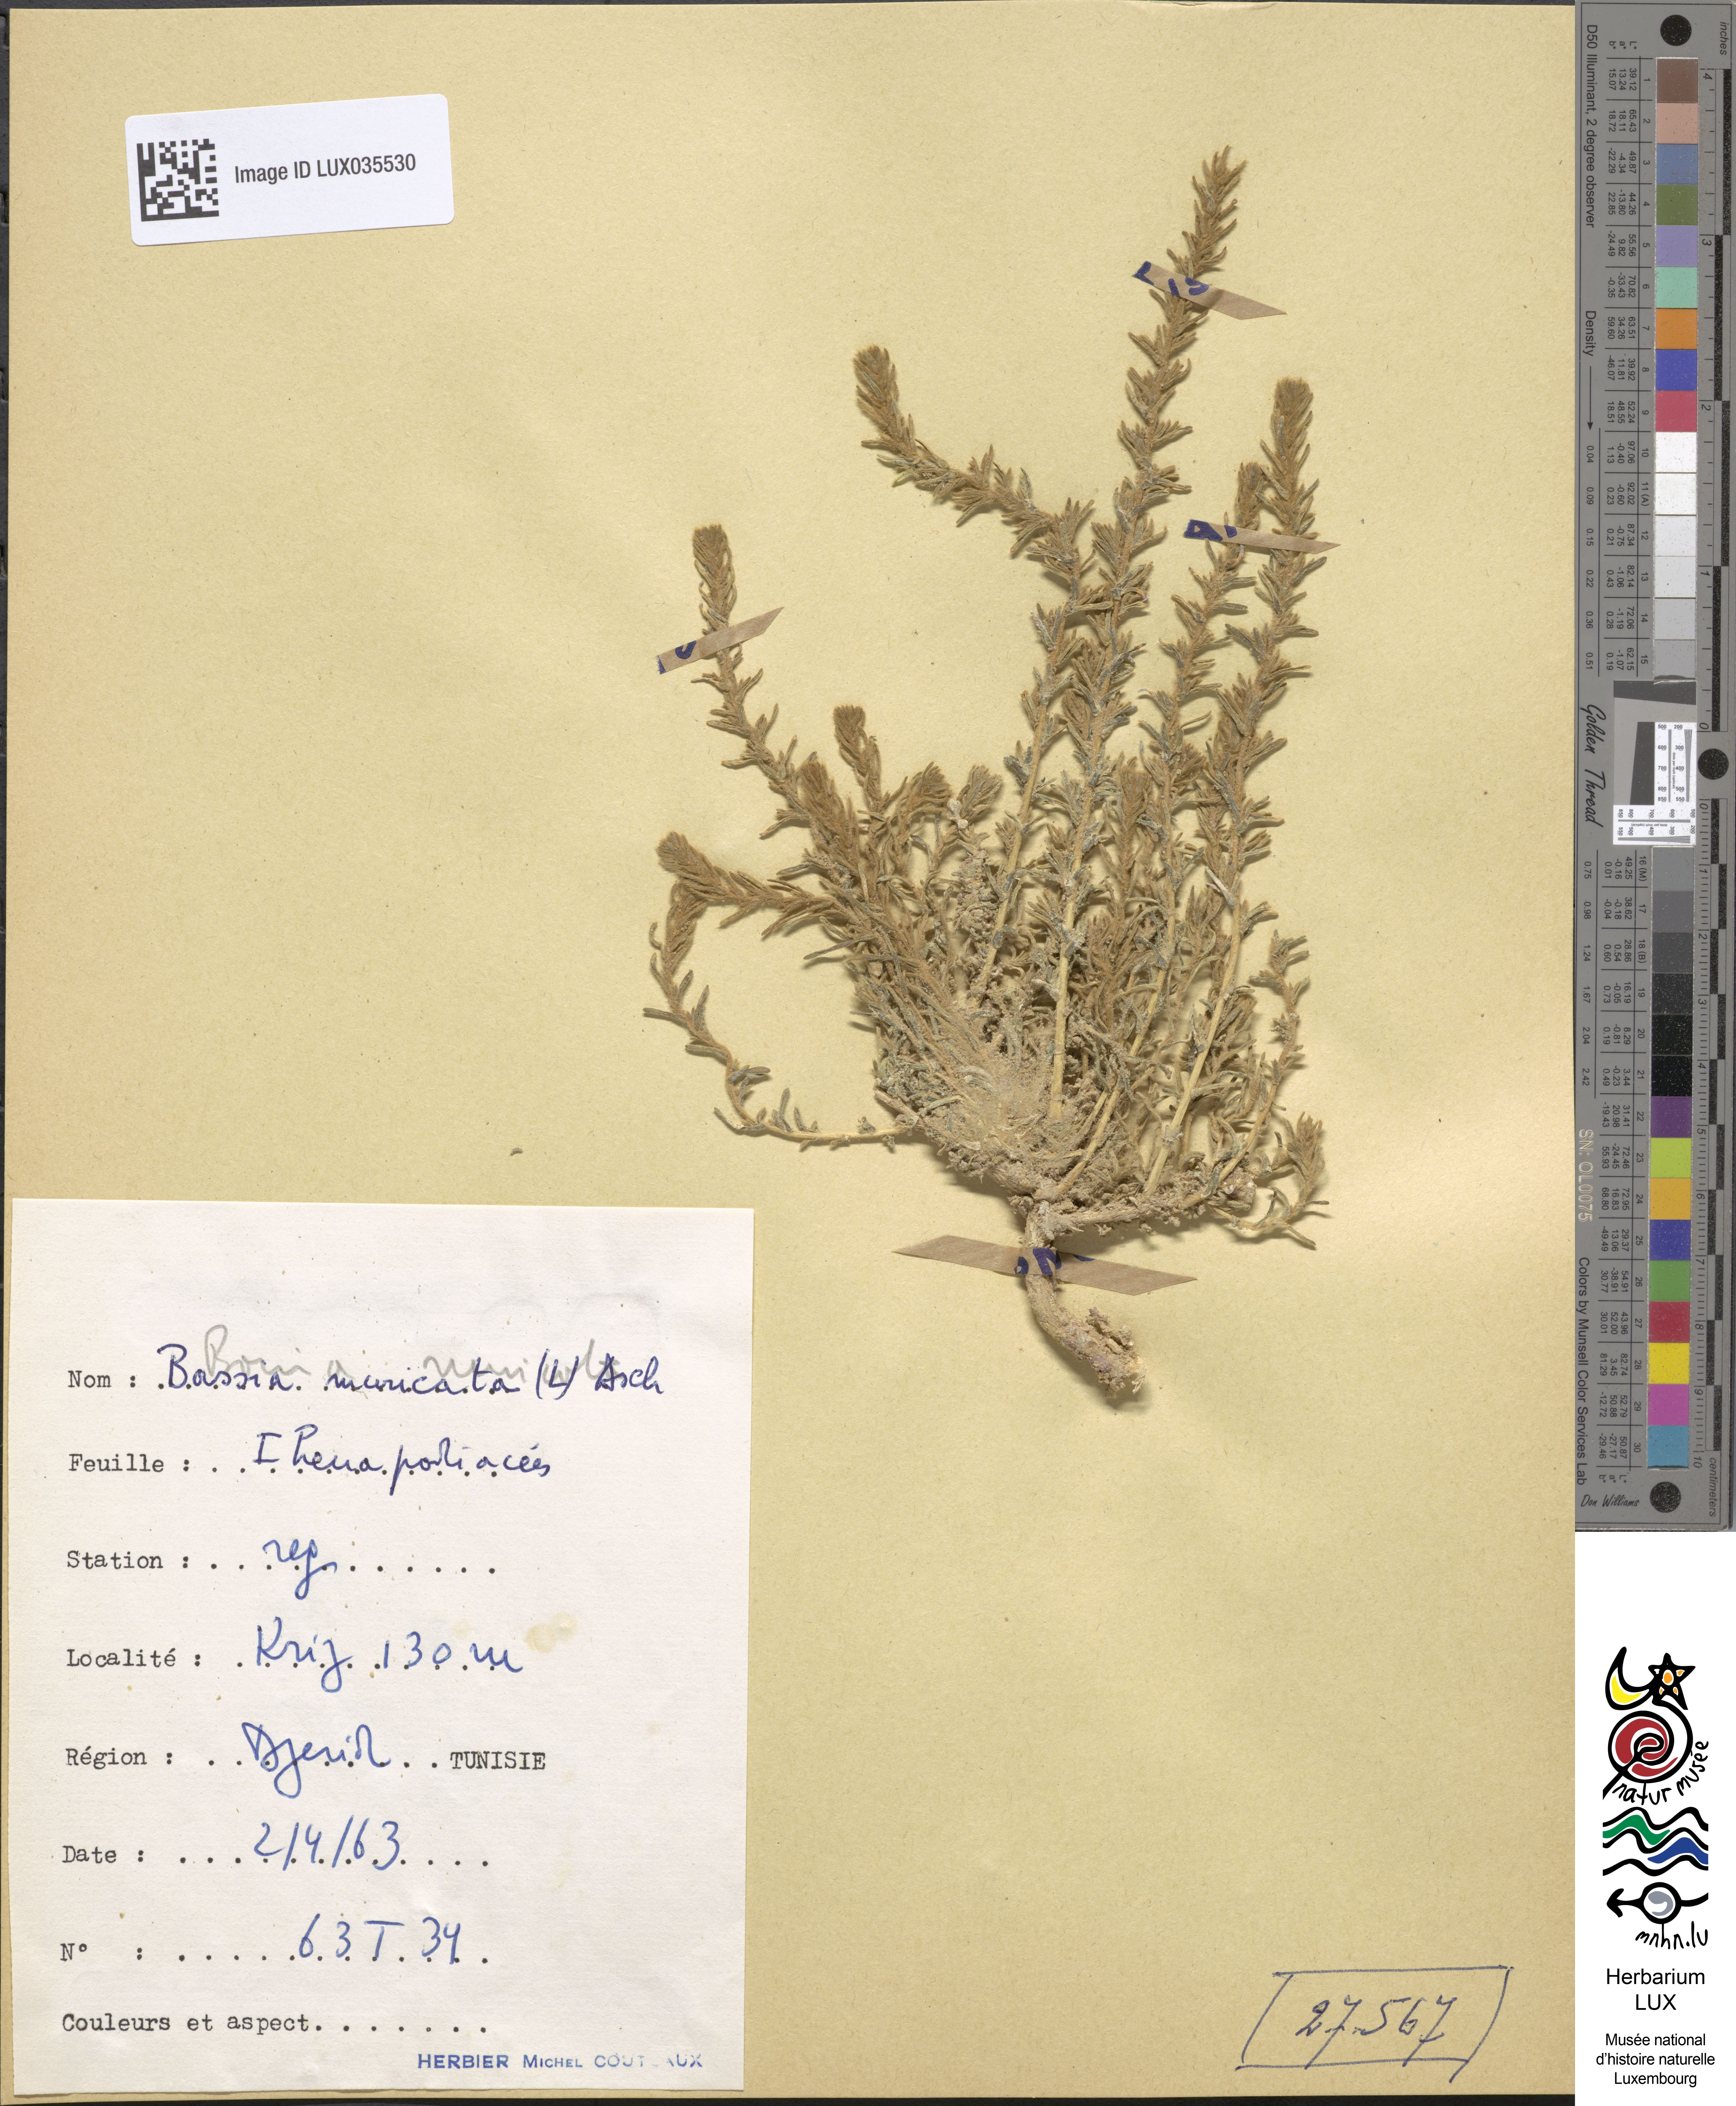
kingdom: Plantae
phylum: Tracheophyta
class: Magnoliopsida
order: Caryophyllales
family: Amaranthaceae
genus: Bassia
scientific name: Bassia muricata
